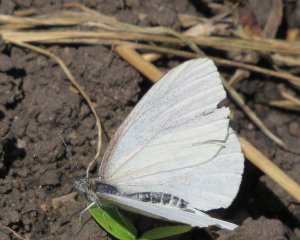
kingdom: Animalia
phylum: Arthropoda
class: Insecta
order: Lepidoptera
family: Pieridae
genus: Pieris
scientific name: Pieris oleracea
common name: Mustard White
